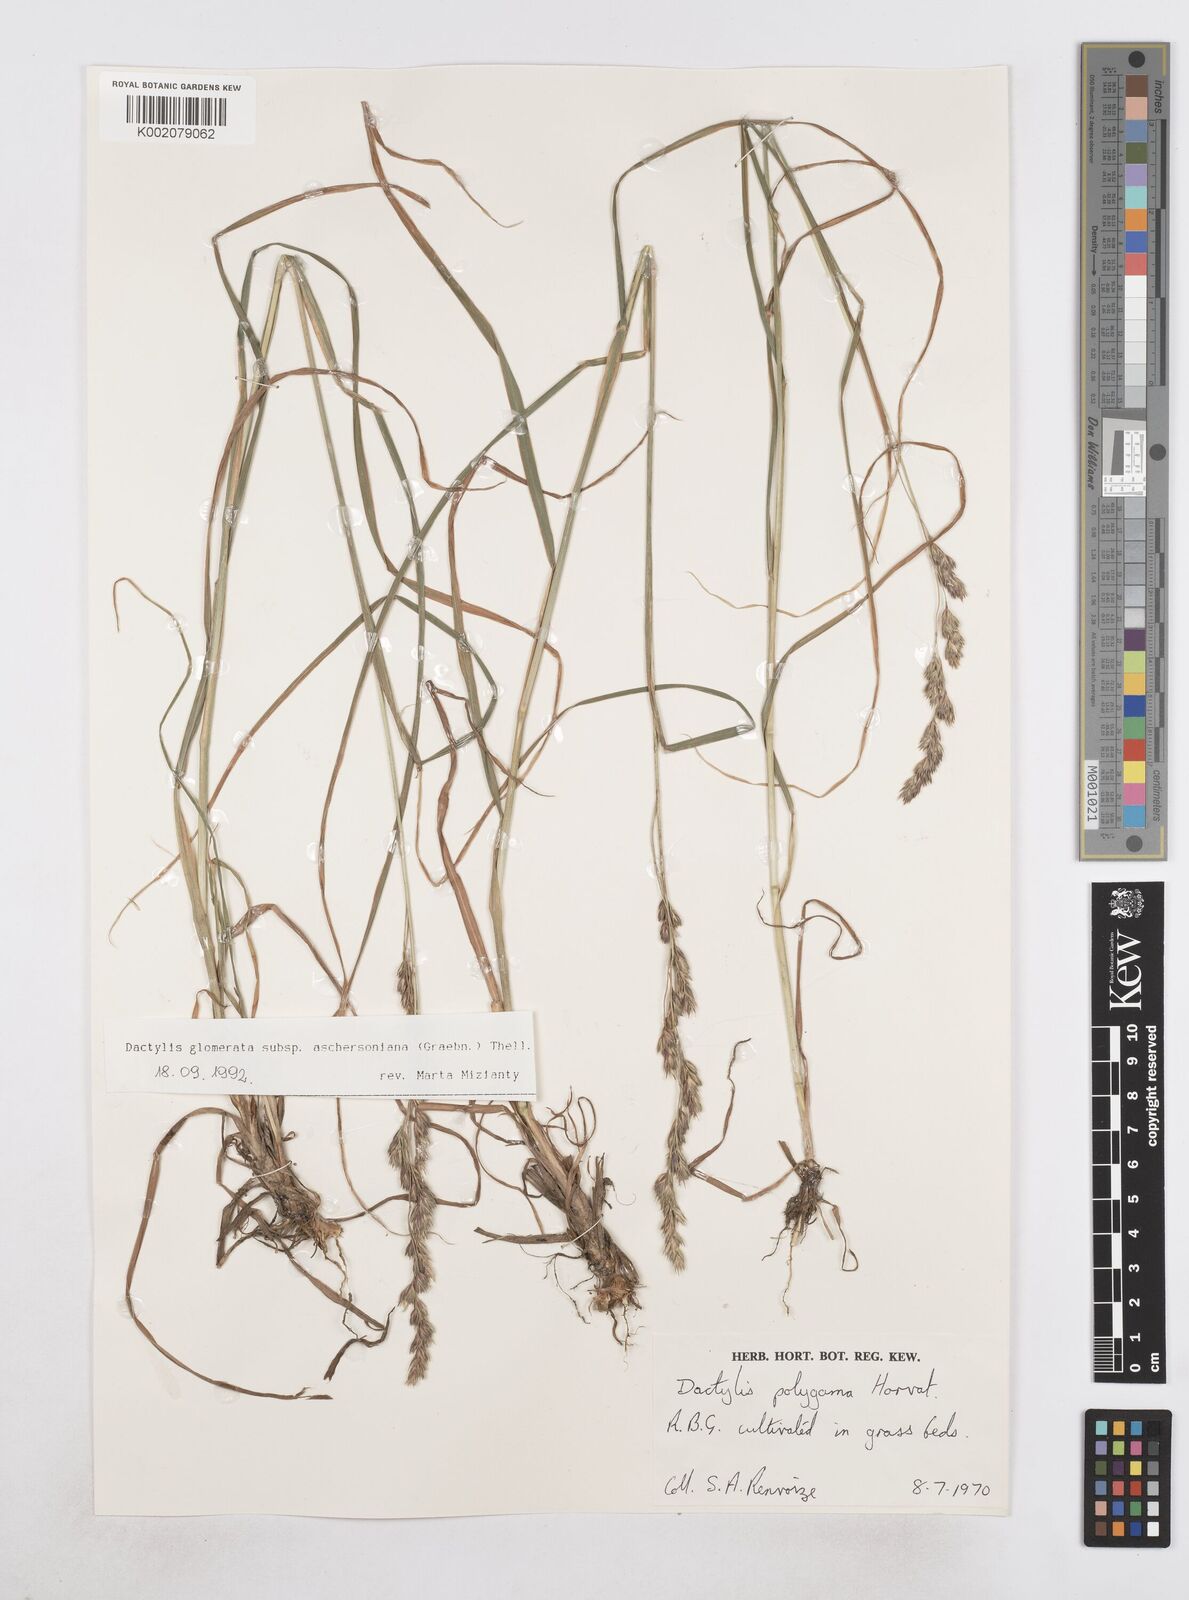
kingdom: Plantae
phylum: Tracheophyta
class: Liliopsida
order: Poales
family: Poaceae
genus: Dactylis
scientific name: Dactylis glomerata
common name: Orchardgrass
